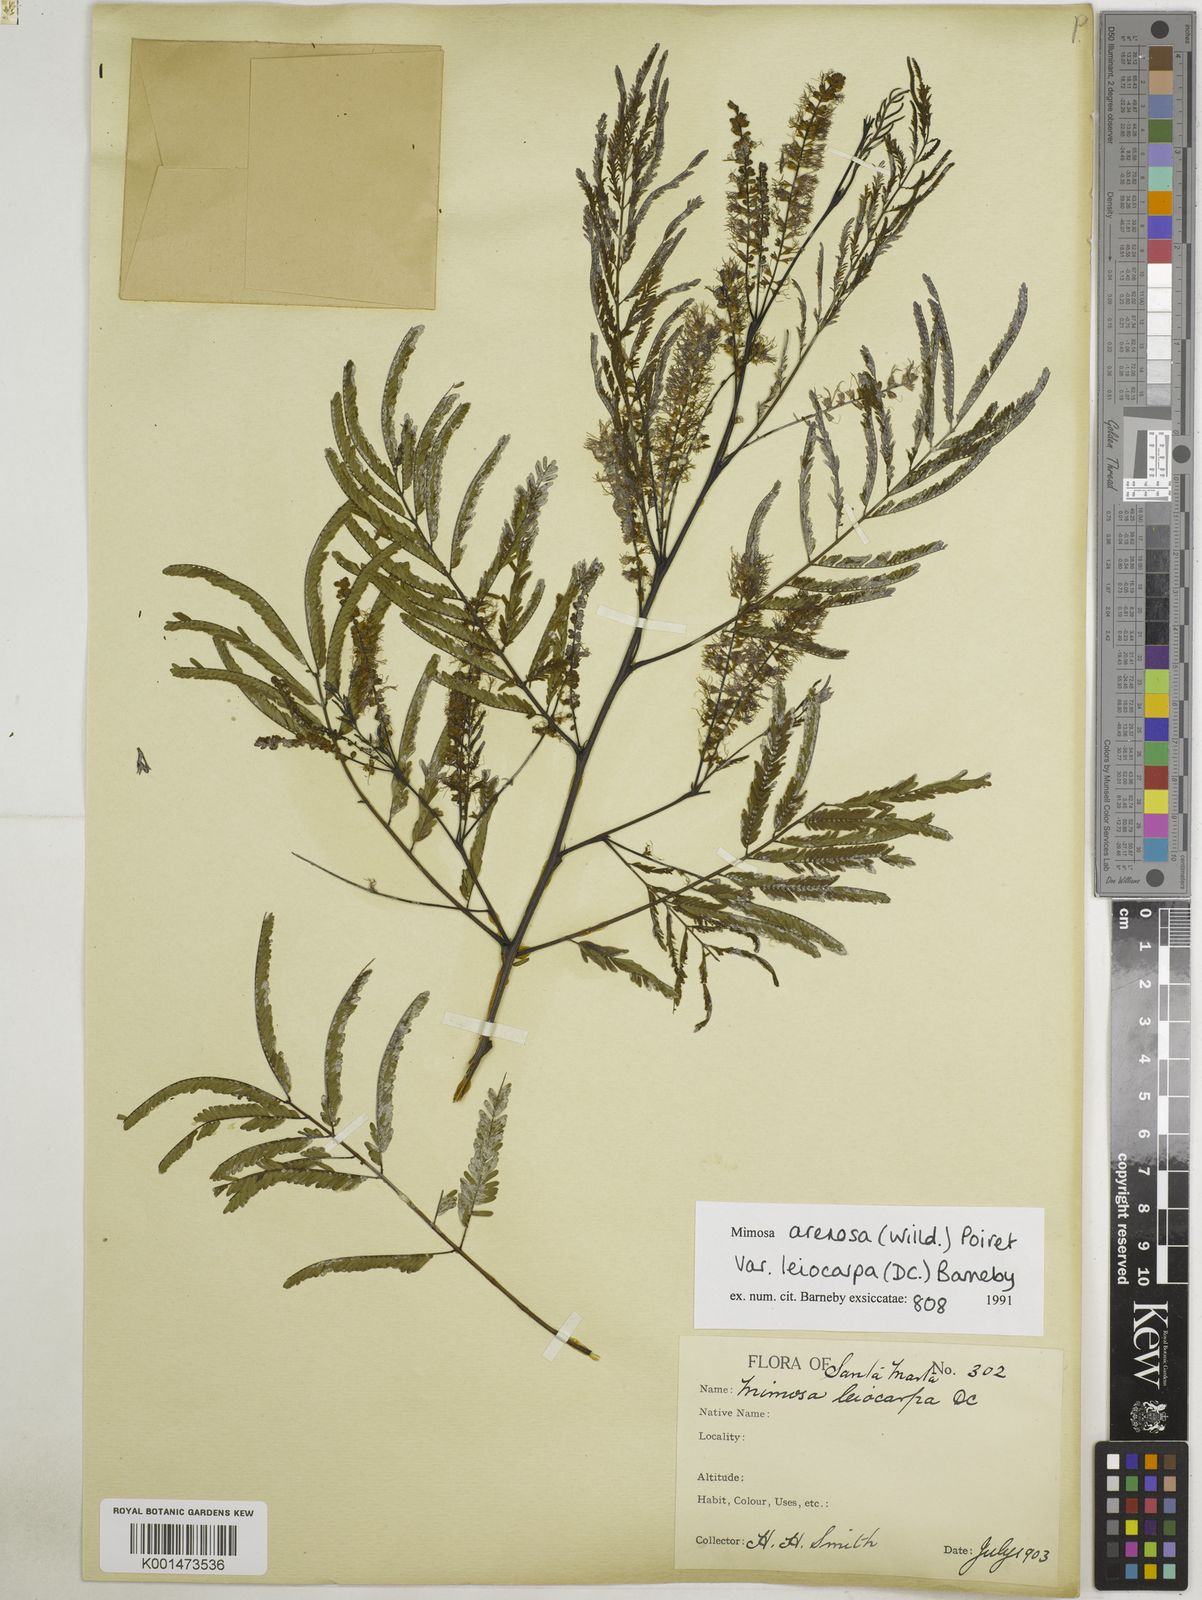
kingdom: Plantae
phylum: Tracheophyta
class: Magnoliopsida
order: Fabales
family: Fabaceae
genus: Mimosa
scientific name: Mimosa arenosa
